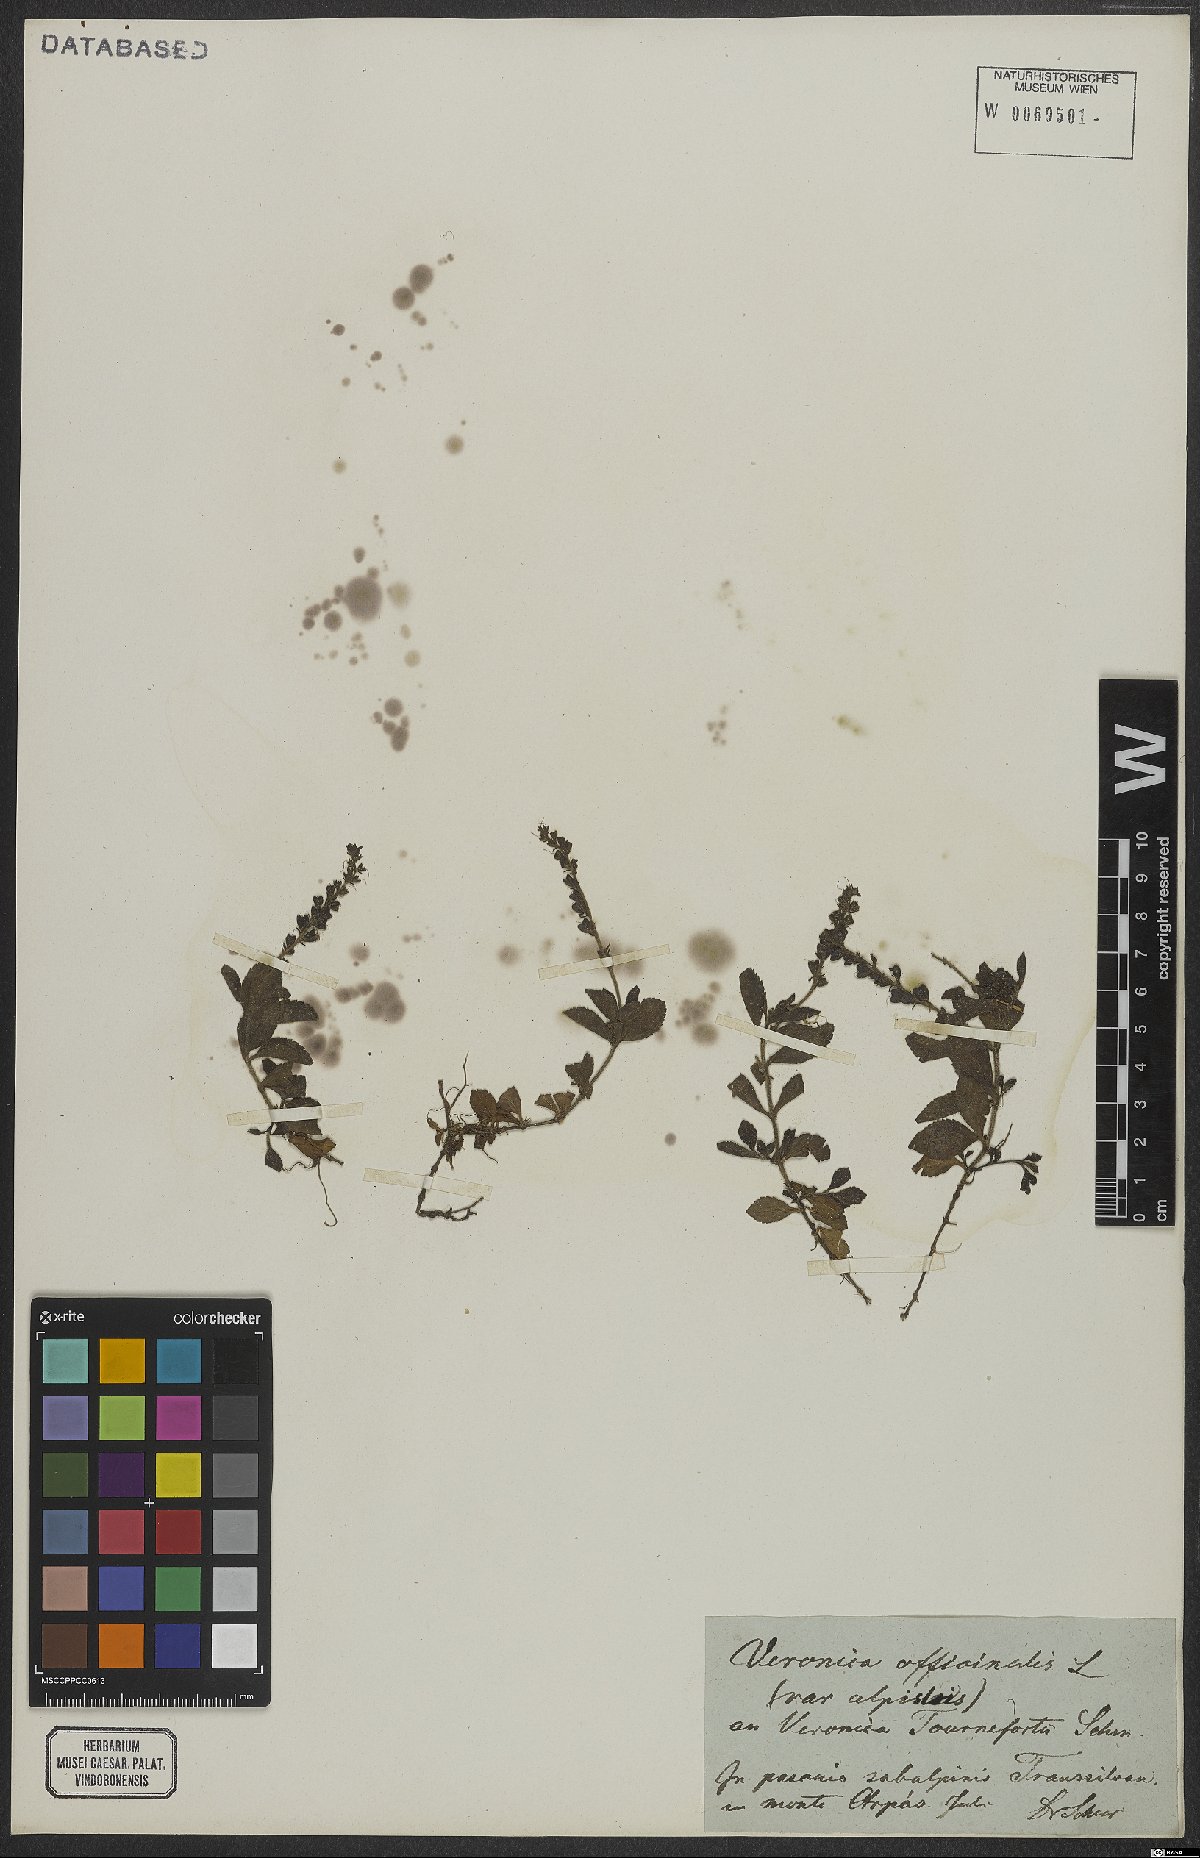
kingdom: Plantae
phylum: Tracheophyta
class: Magnoliopsida
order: Lamiales
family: Plantaginaceae
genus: Veronica
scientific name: Veronica officinalis
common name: Common speedwell
